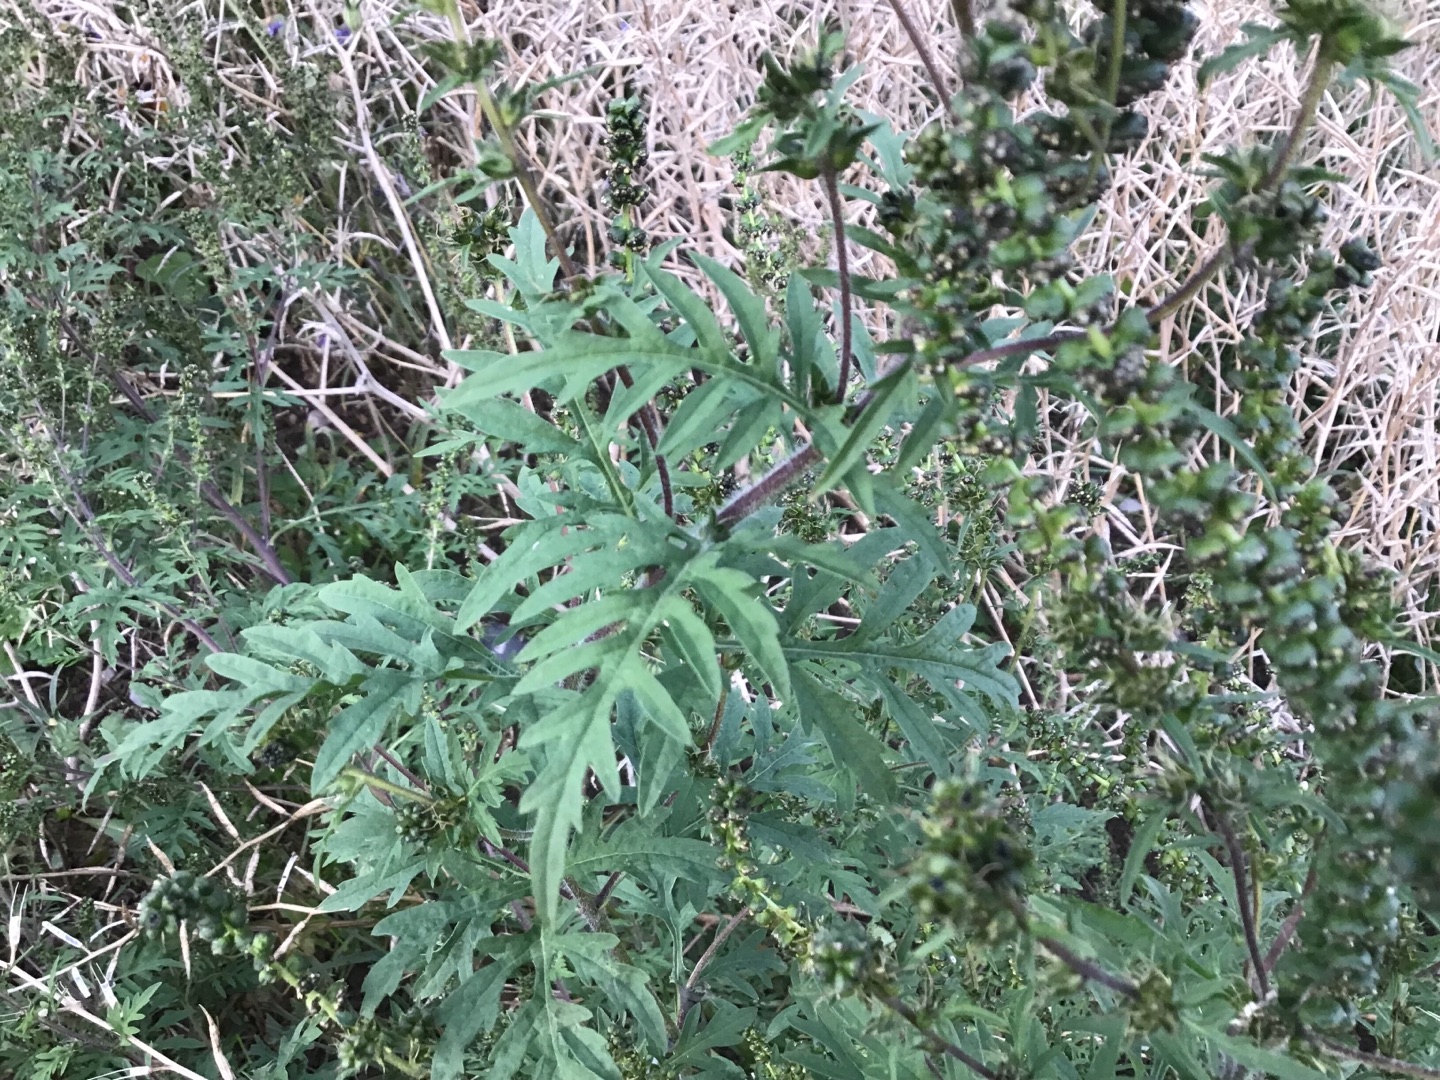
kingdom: Plantae
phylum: Tracheophyta
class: Magnoliopsida
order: Asterales
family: Asteraceae
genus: Ambrosia
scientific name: Ambrosia artemisiifolia
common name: Bynke-ambrosie
